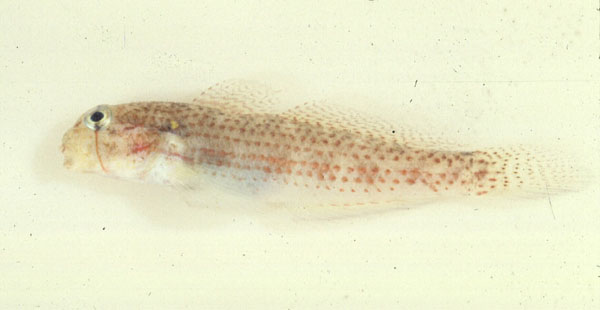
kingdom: Animalia
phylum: Chordata
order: Perciformes
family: Gobiidae
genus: Gnatholepis
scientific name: Gnatholepis
